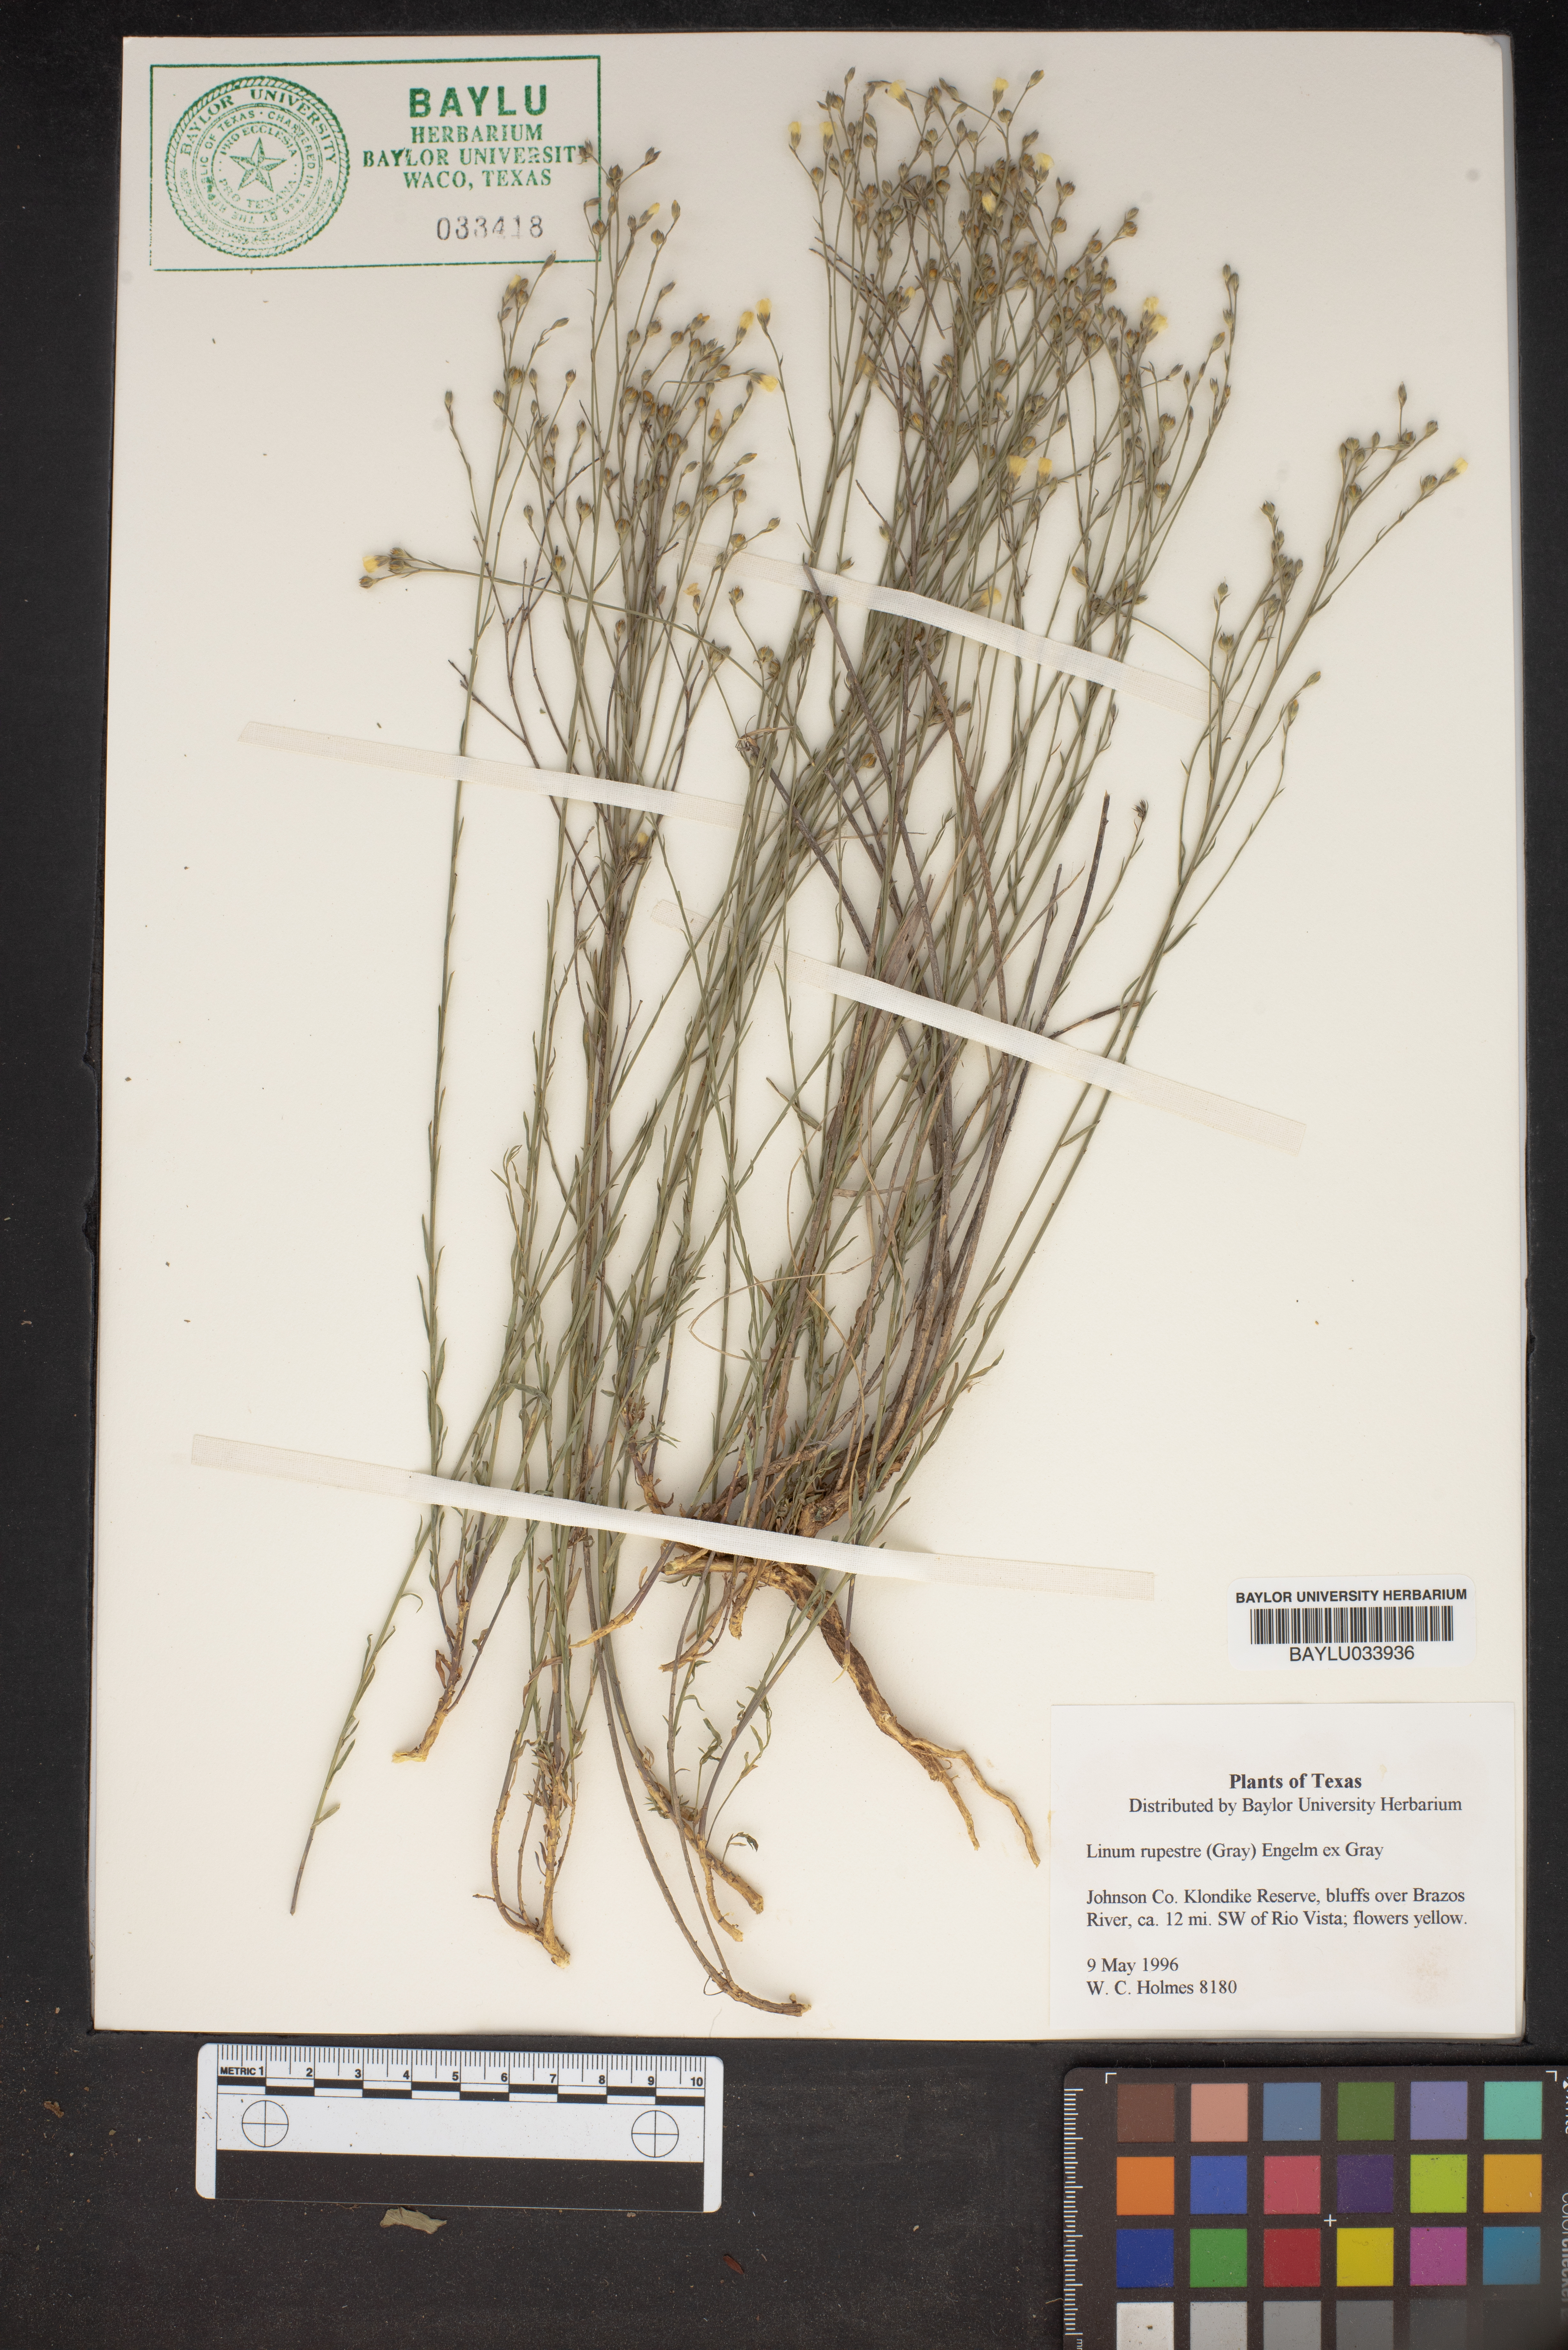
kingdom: Plantae
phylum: Tracheophyta
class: Magnoliopsida
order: Malpighiales
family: Linaceae
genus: Linum
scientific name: Linum rupestre
